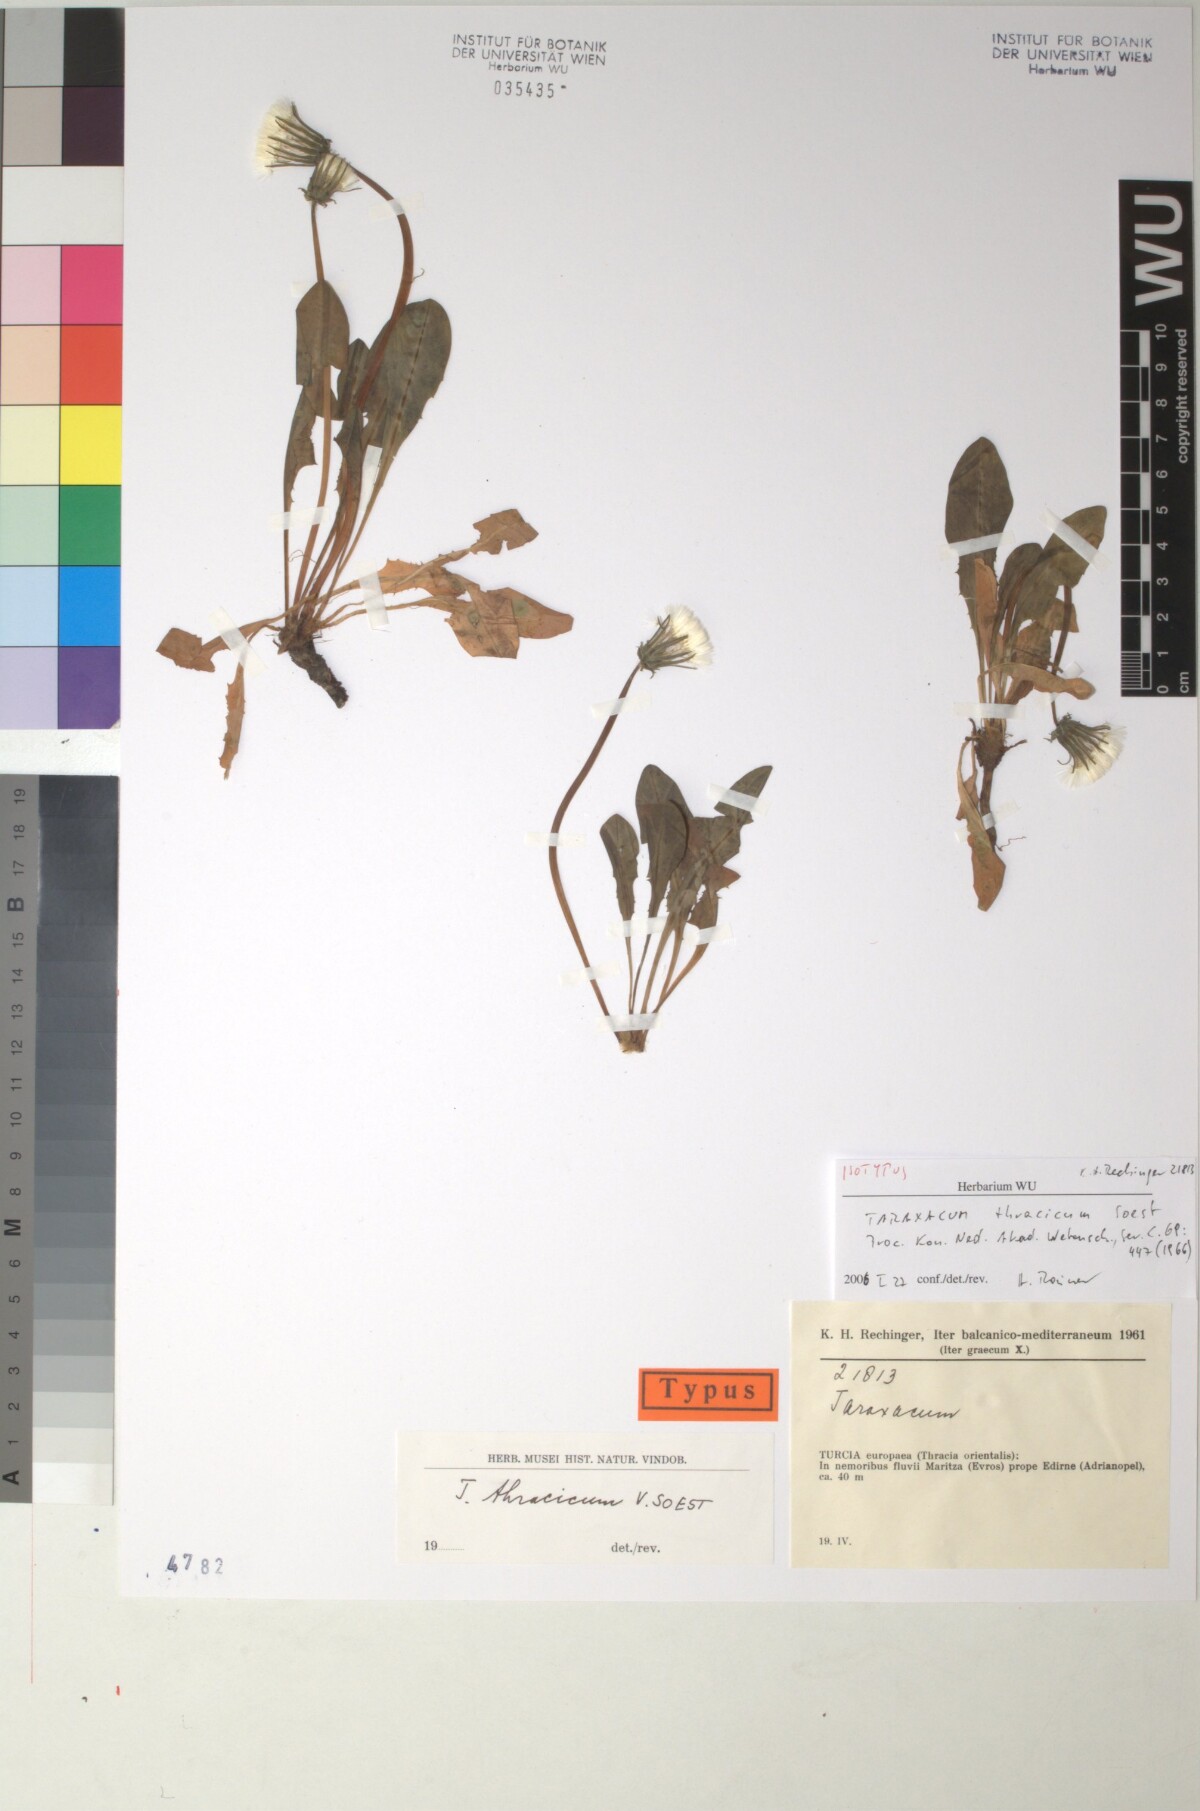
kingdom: Plantae
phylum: Tracheophyta
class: Magnoliopsida
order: Asterales
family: Asteraceae
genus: Taraxacum
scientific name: Taraxacum thracicum
